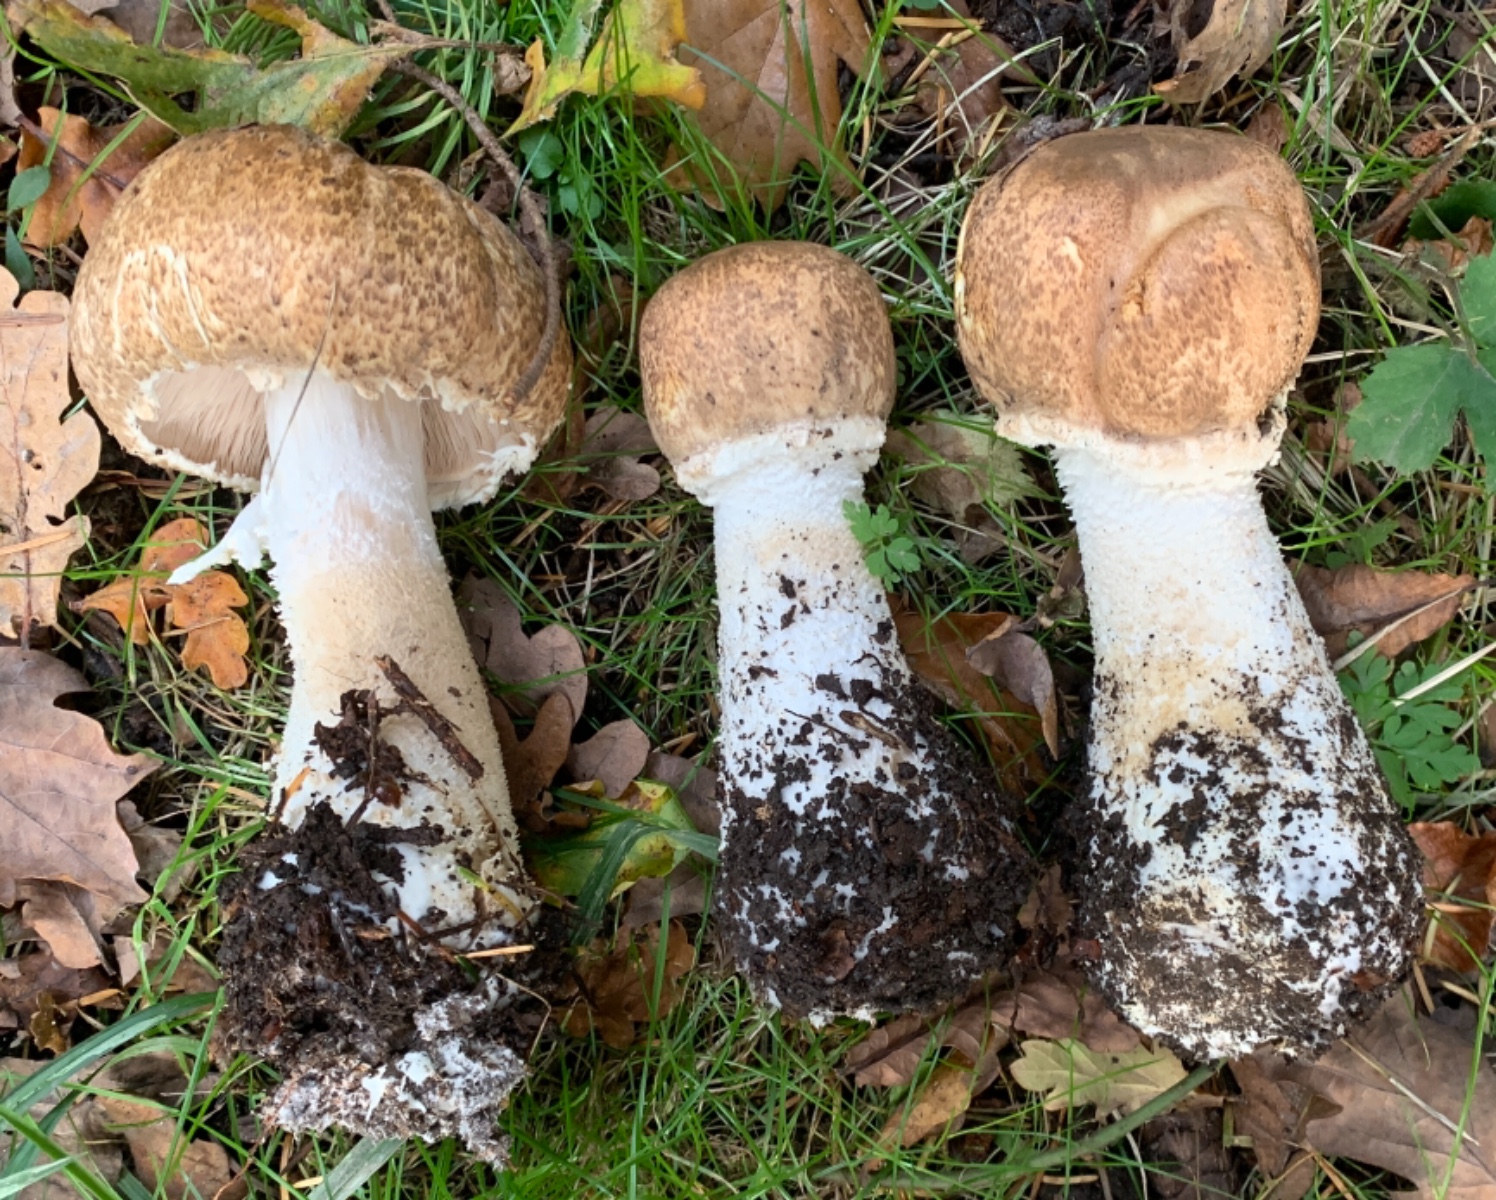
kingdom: Fungi
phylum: Basidiomycota
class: Agaricomycetes
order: Agaricales
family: Agaricaceae
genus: Agaricus
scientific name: Agaricus augustus
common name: prægtig champignon
